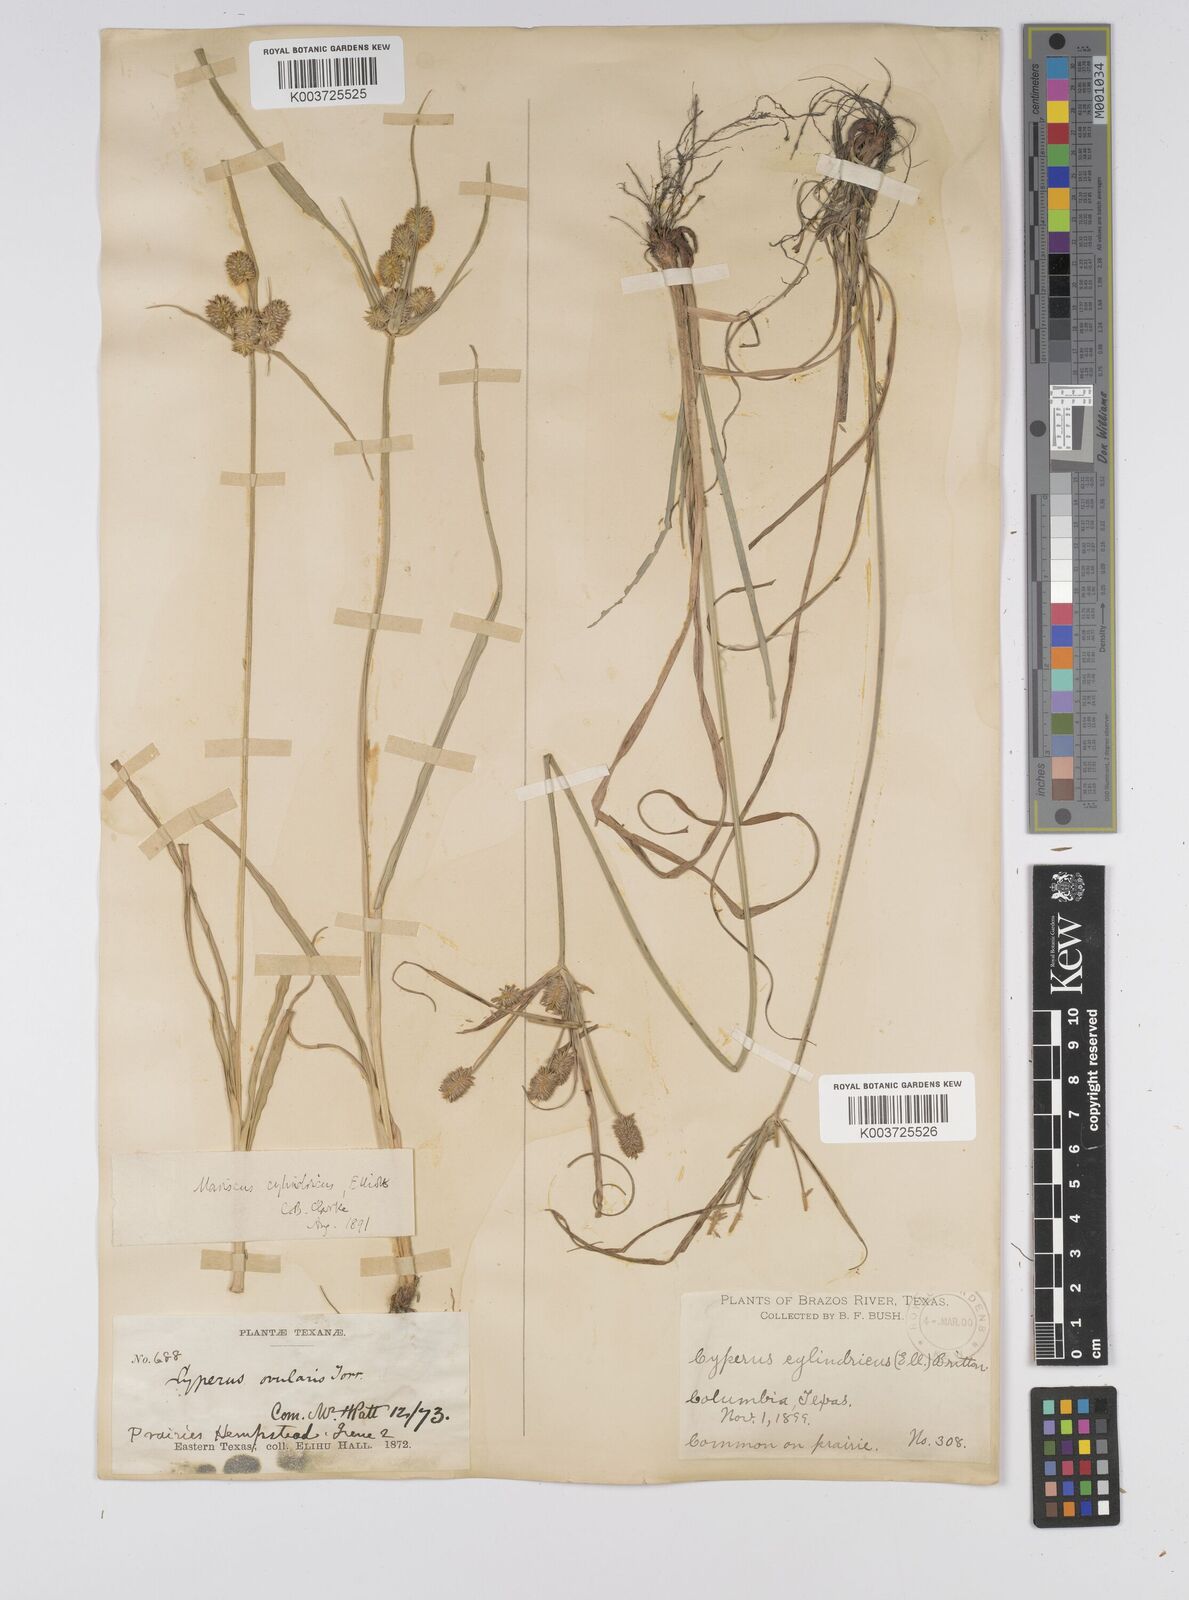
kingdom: Plantae
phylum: Tracheophyta
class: Liliopsida
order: Poales
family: Cyperaceae
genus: Cyperus
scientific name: Cyperus retrorsus
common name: Pinebarren flat sedge
